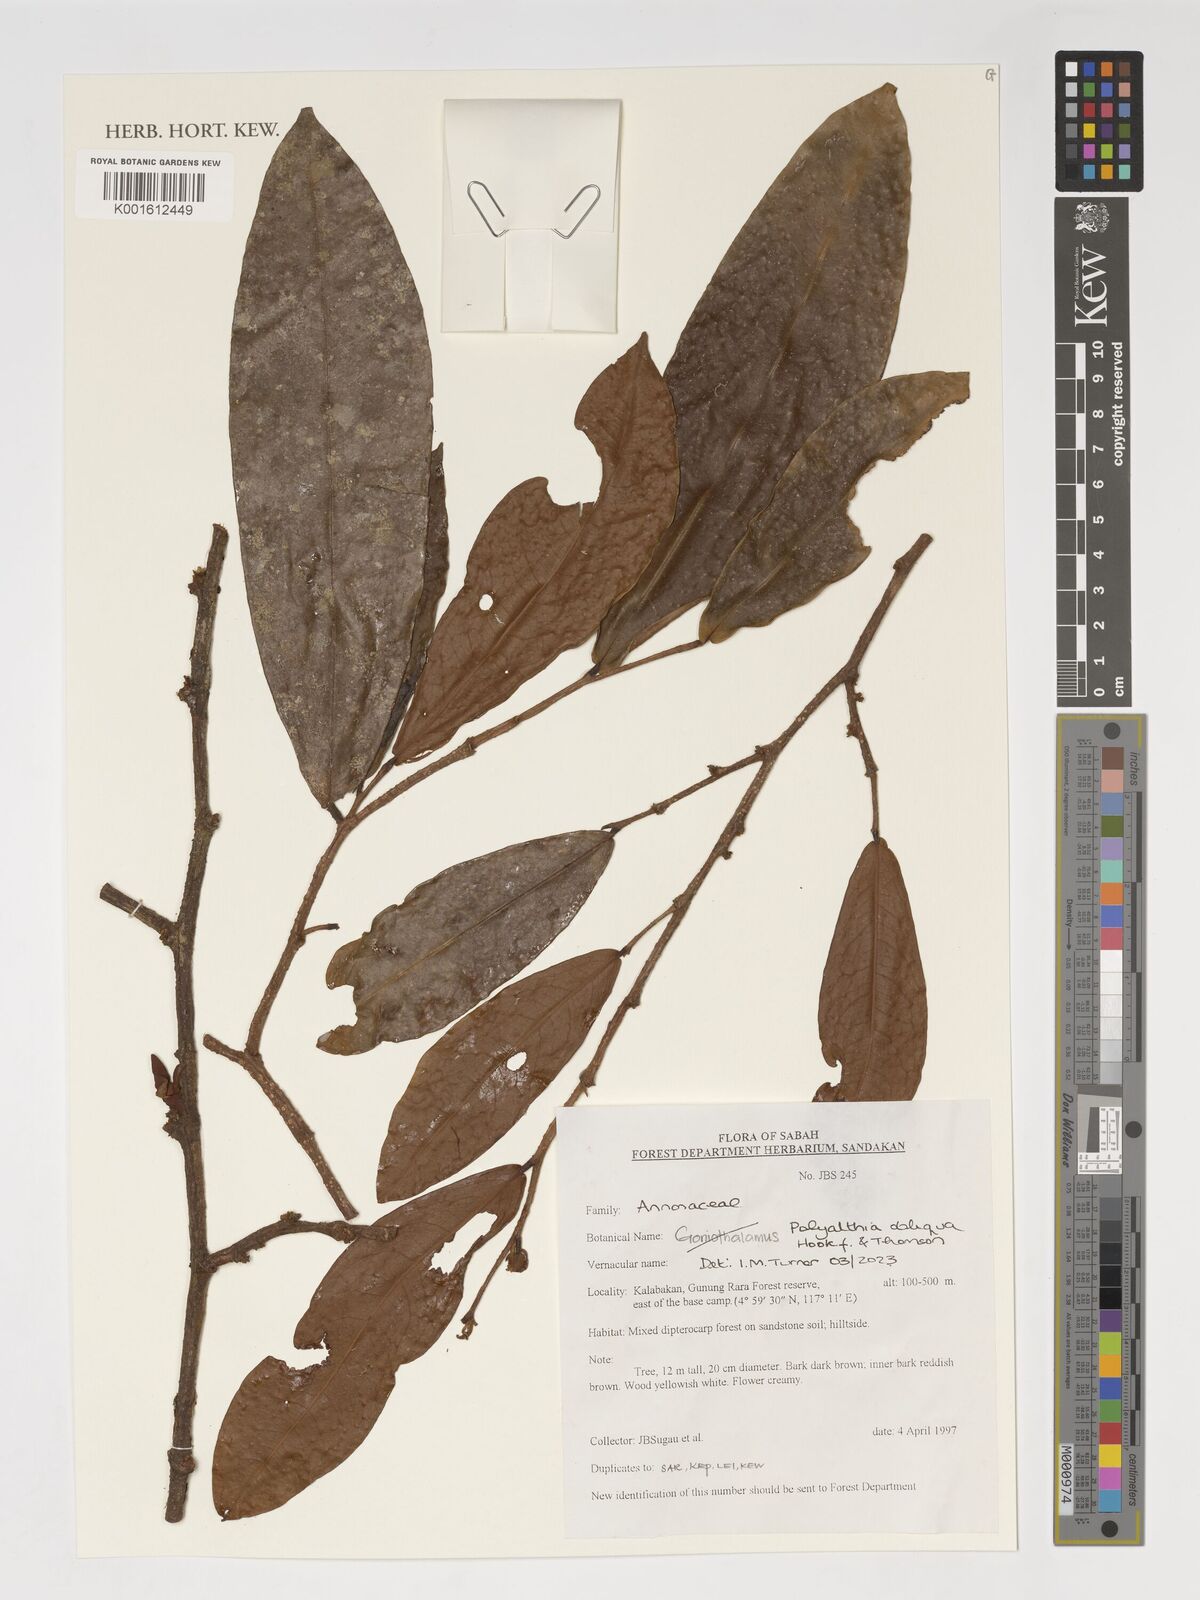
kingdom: Plantae
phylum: Tracheophyta
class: Magnoliopsida
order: Magnoliales
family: Annonaceae
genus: Polyalthia
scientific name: Polyalthia obliqua
